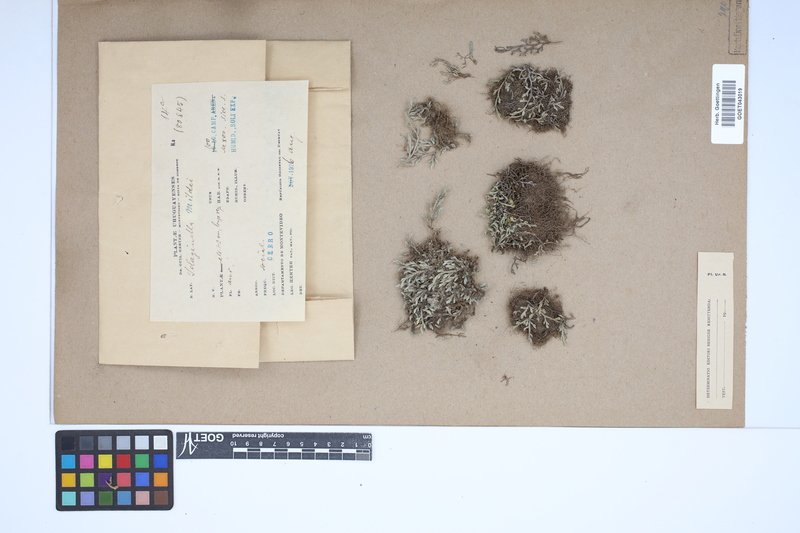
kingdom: Plantae
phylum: Tracheophyta
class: Lycopodiopsida
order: Selaginellales
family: Selaginellaceae
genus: Selaginella
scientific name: Selaginella sellowii
